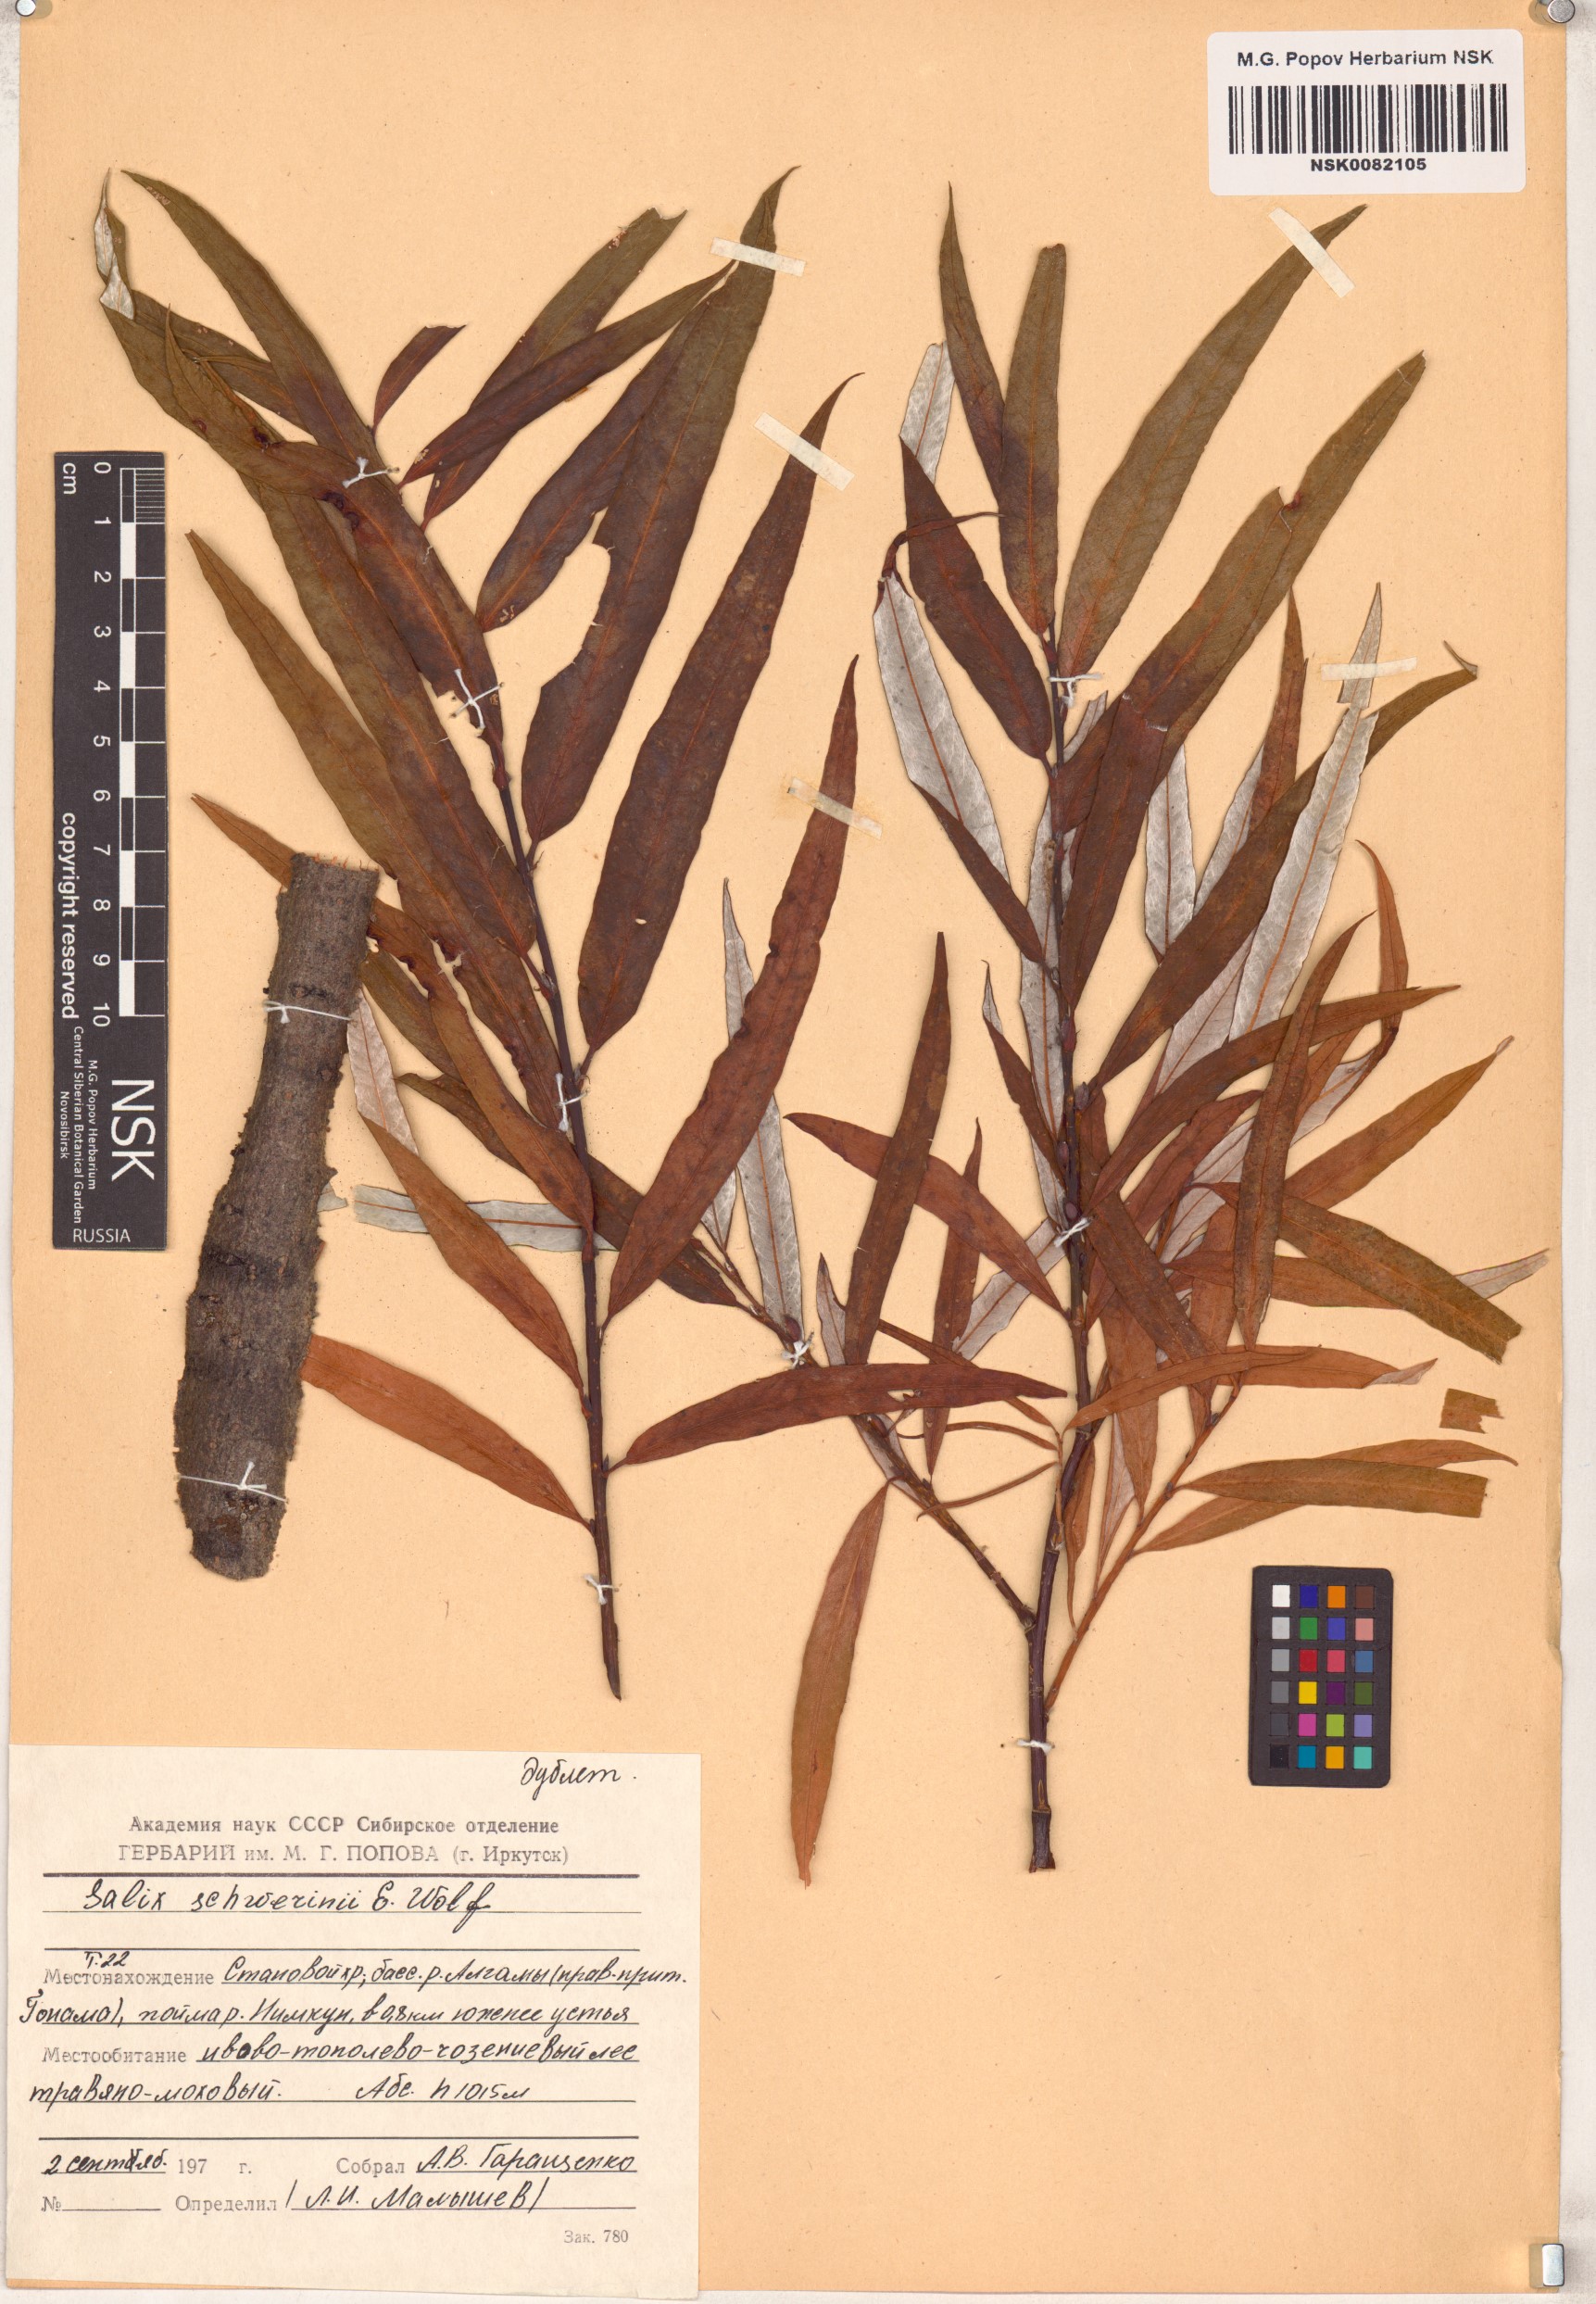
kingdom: Plantae
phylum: Tracheophyta
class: Magnoliopsida
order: Malpighiales
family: Salicaceae
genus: Salix
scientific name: Salix schwerinii
